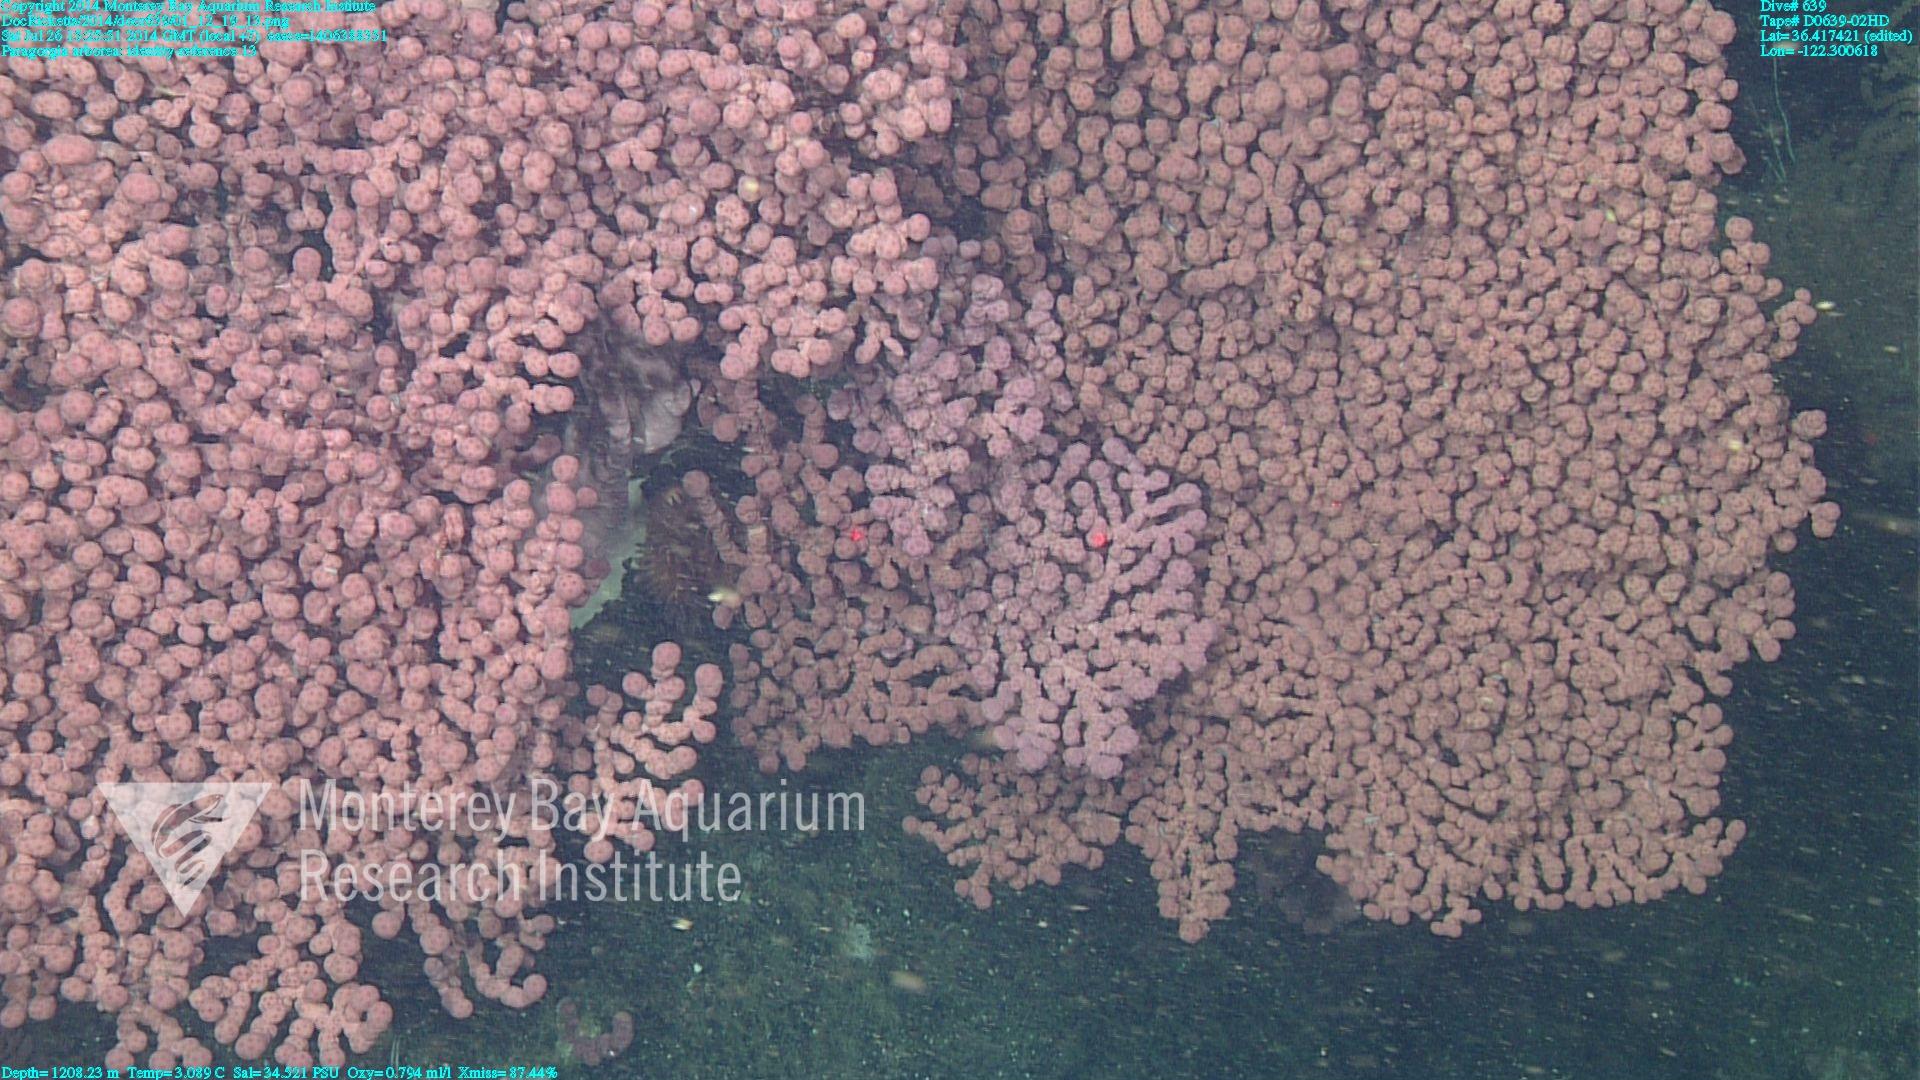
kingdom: Animalia
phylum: Cnidaria
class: Anthozoa
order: Scleralcyonacea
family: Coralliidae
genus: Paragorgia
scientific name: Paragorgia arborea
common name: Bubble gum coral
